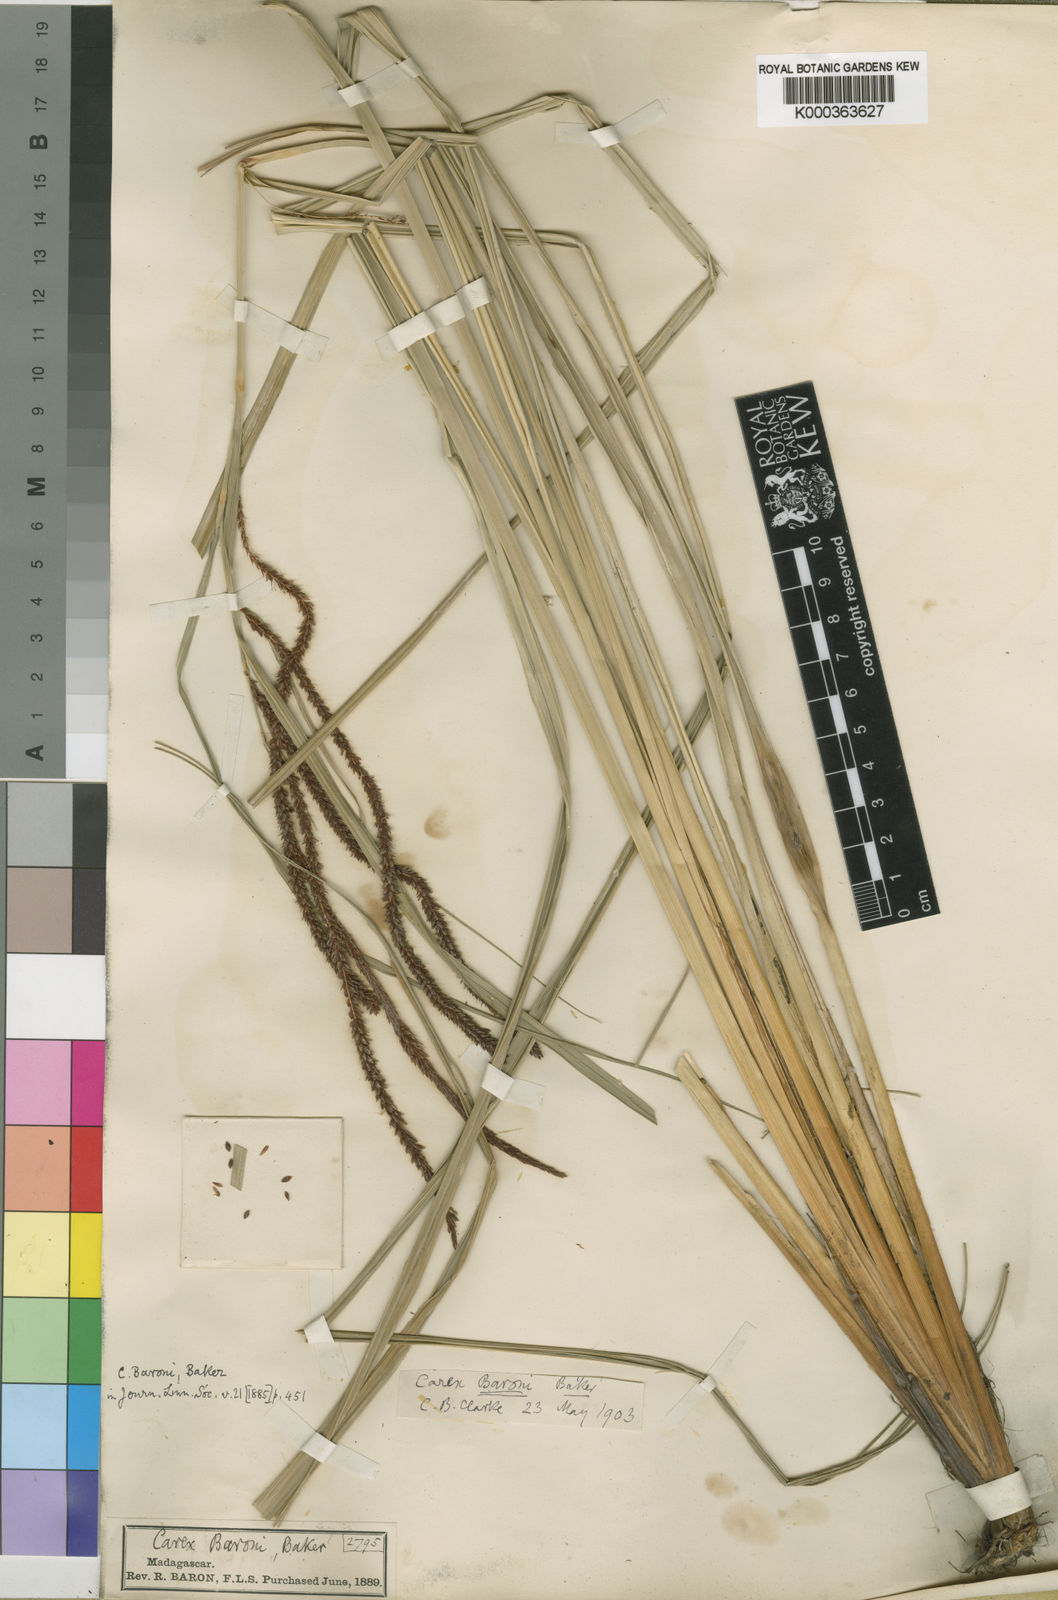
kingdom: Plantae
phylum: Tracheophyta
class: Liliopsida
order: Poales
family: Cyperaceae
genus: Carex
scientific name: Carex baronii
